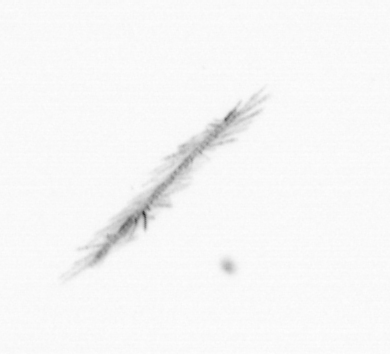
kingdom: Chromista
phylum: Ochrophyta
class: Bacillariophyceae
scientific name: Bacillariophyceae
